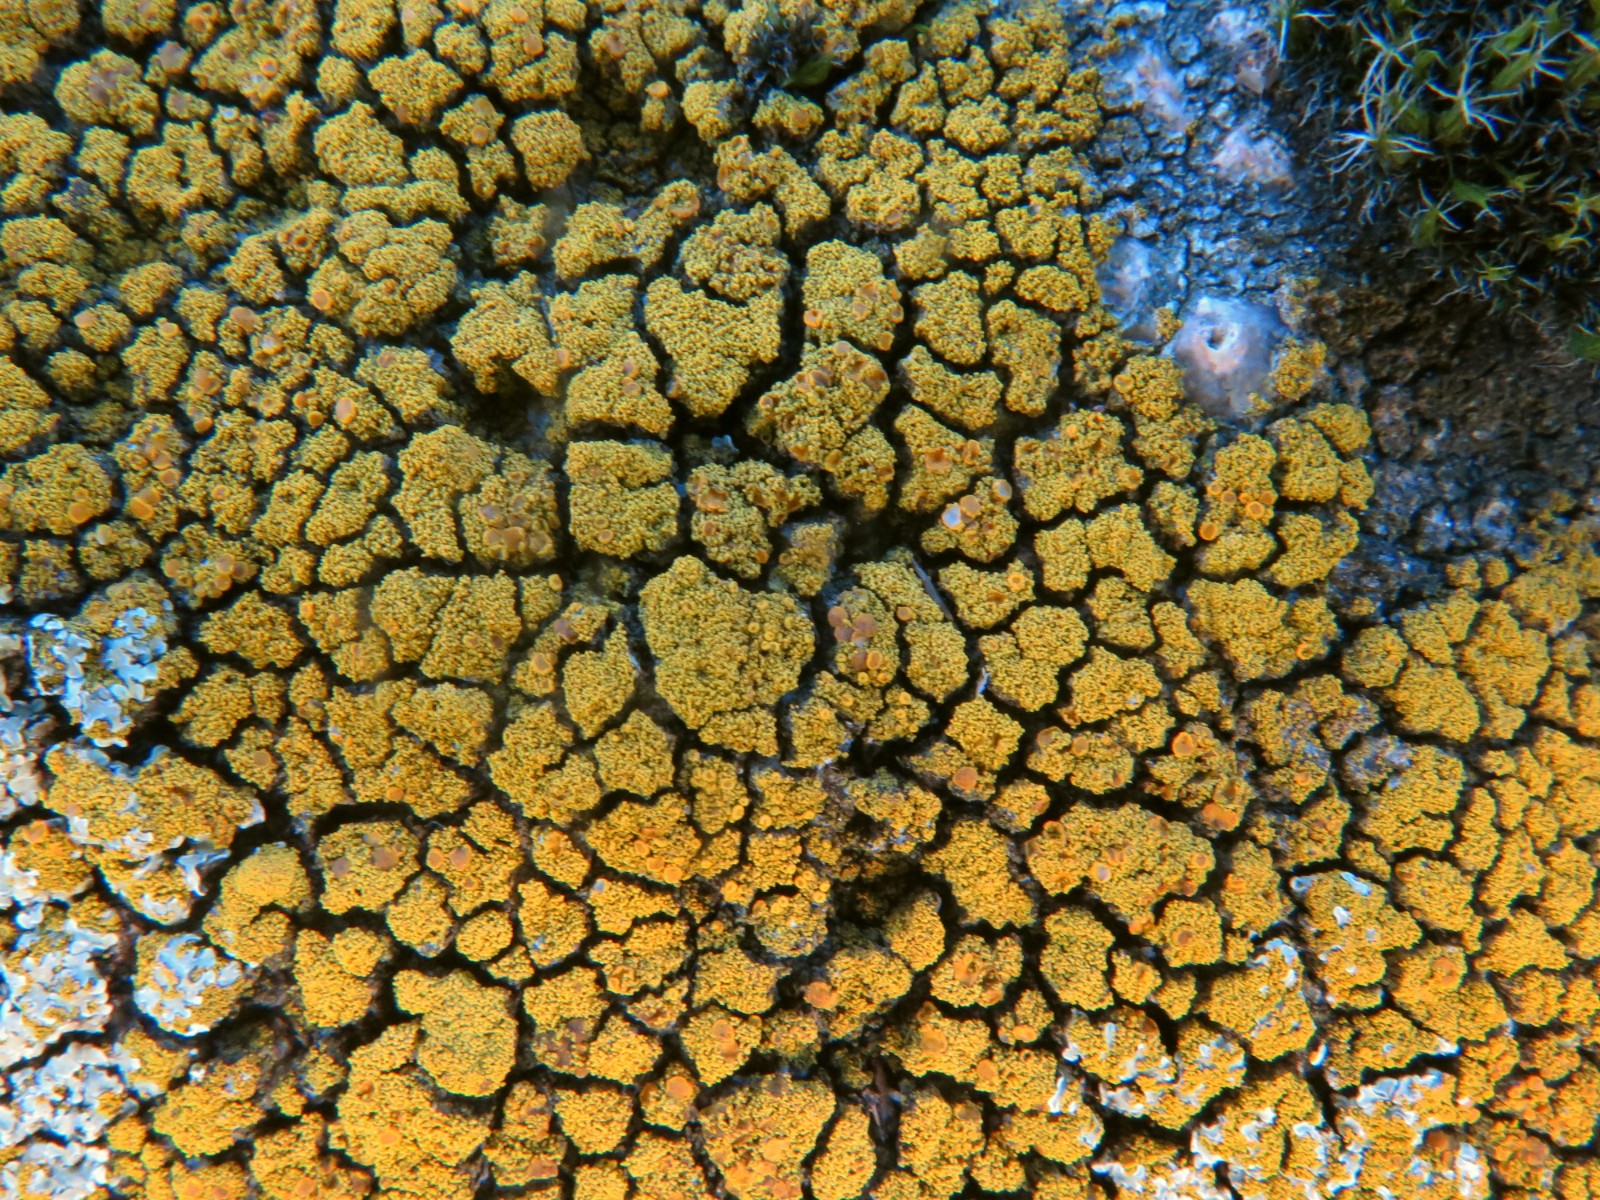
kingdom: Fungi
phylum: Ascomycota
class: Candelariomycetes
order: Candelariales
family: Candelariaceae
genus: Candelariella
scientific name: Candelariella coralliza
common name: pude-æggeblommelav
